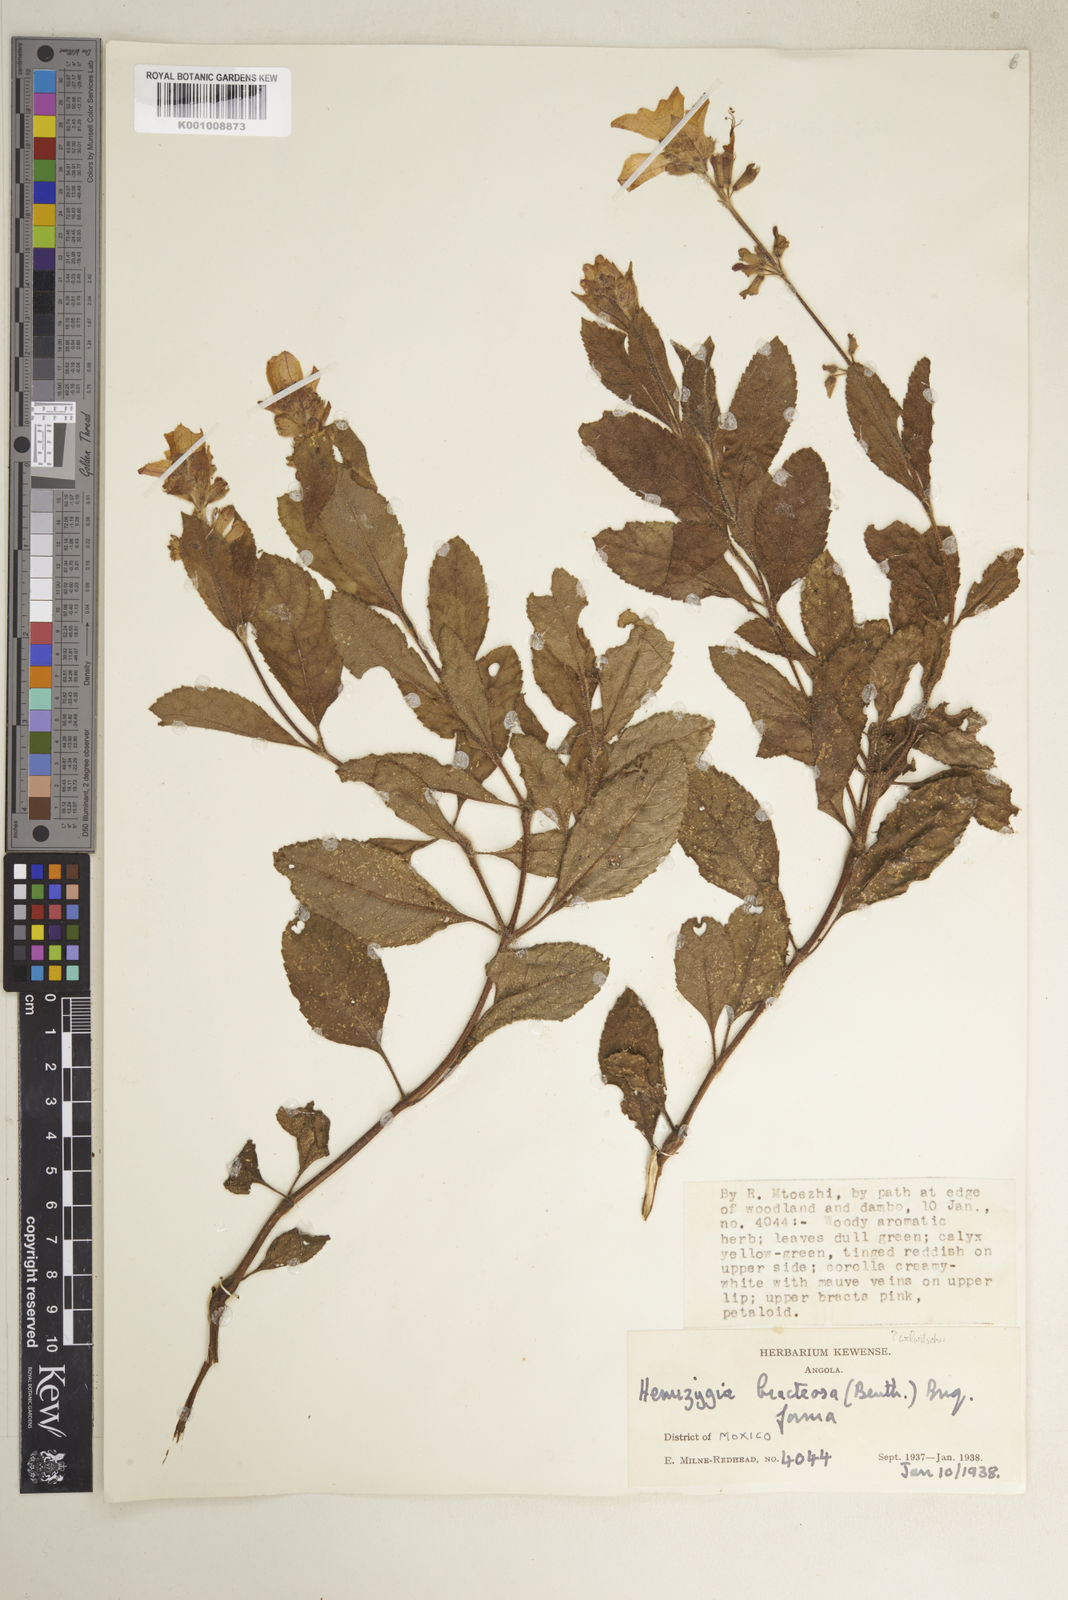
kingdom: Plantae
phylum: Tracheophyta
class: Magnoliopsida
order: Lamiales
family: Lamiaceae
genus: Syncolostemon
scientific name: Syncolostemon welwitschii
